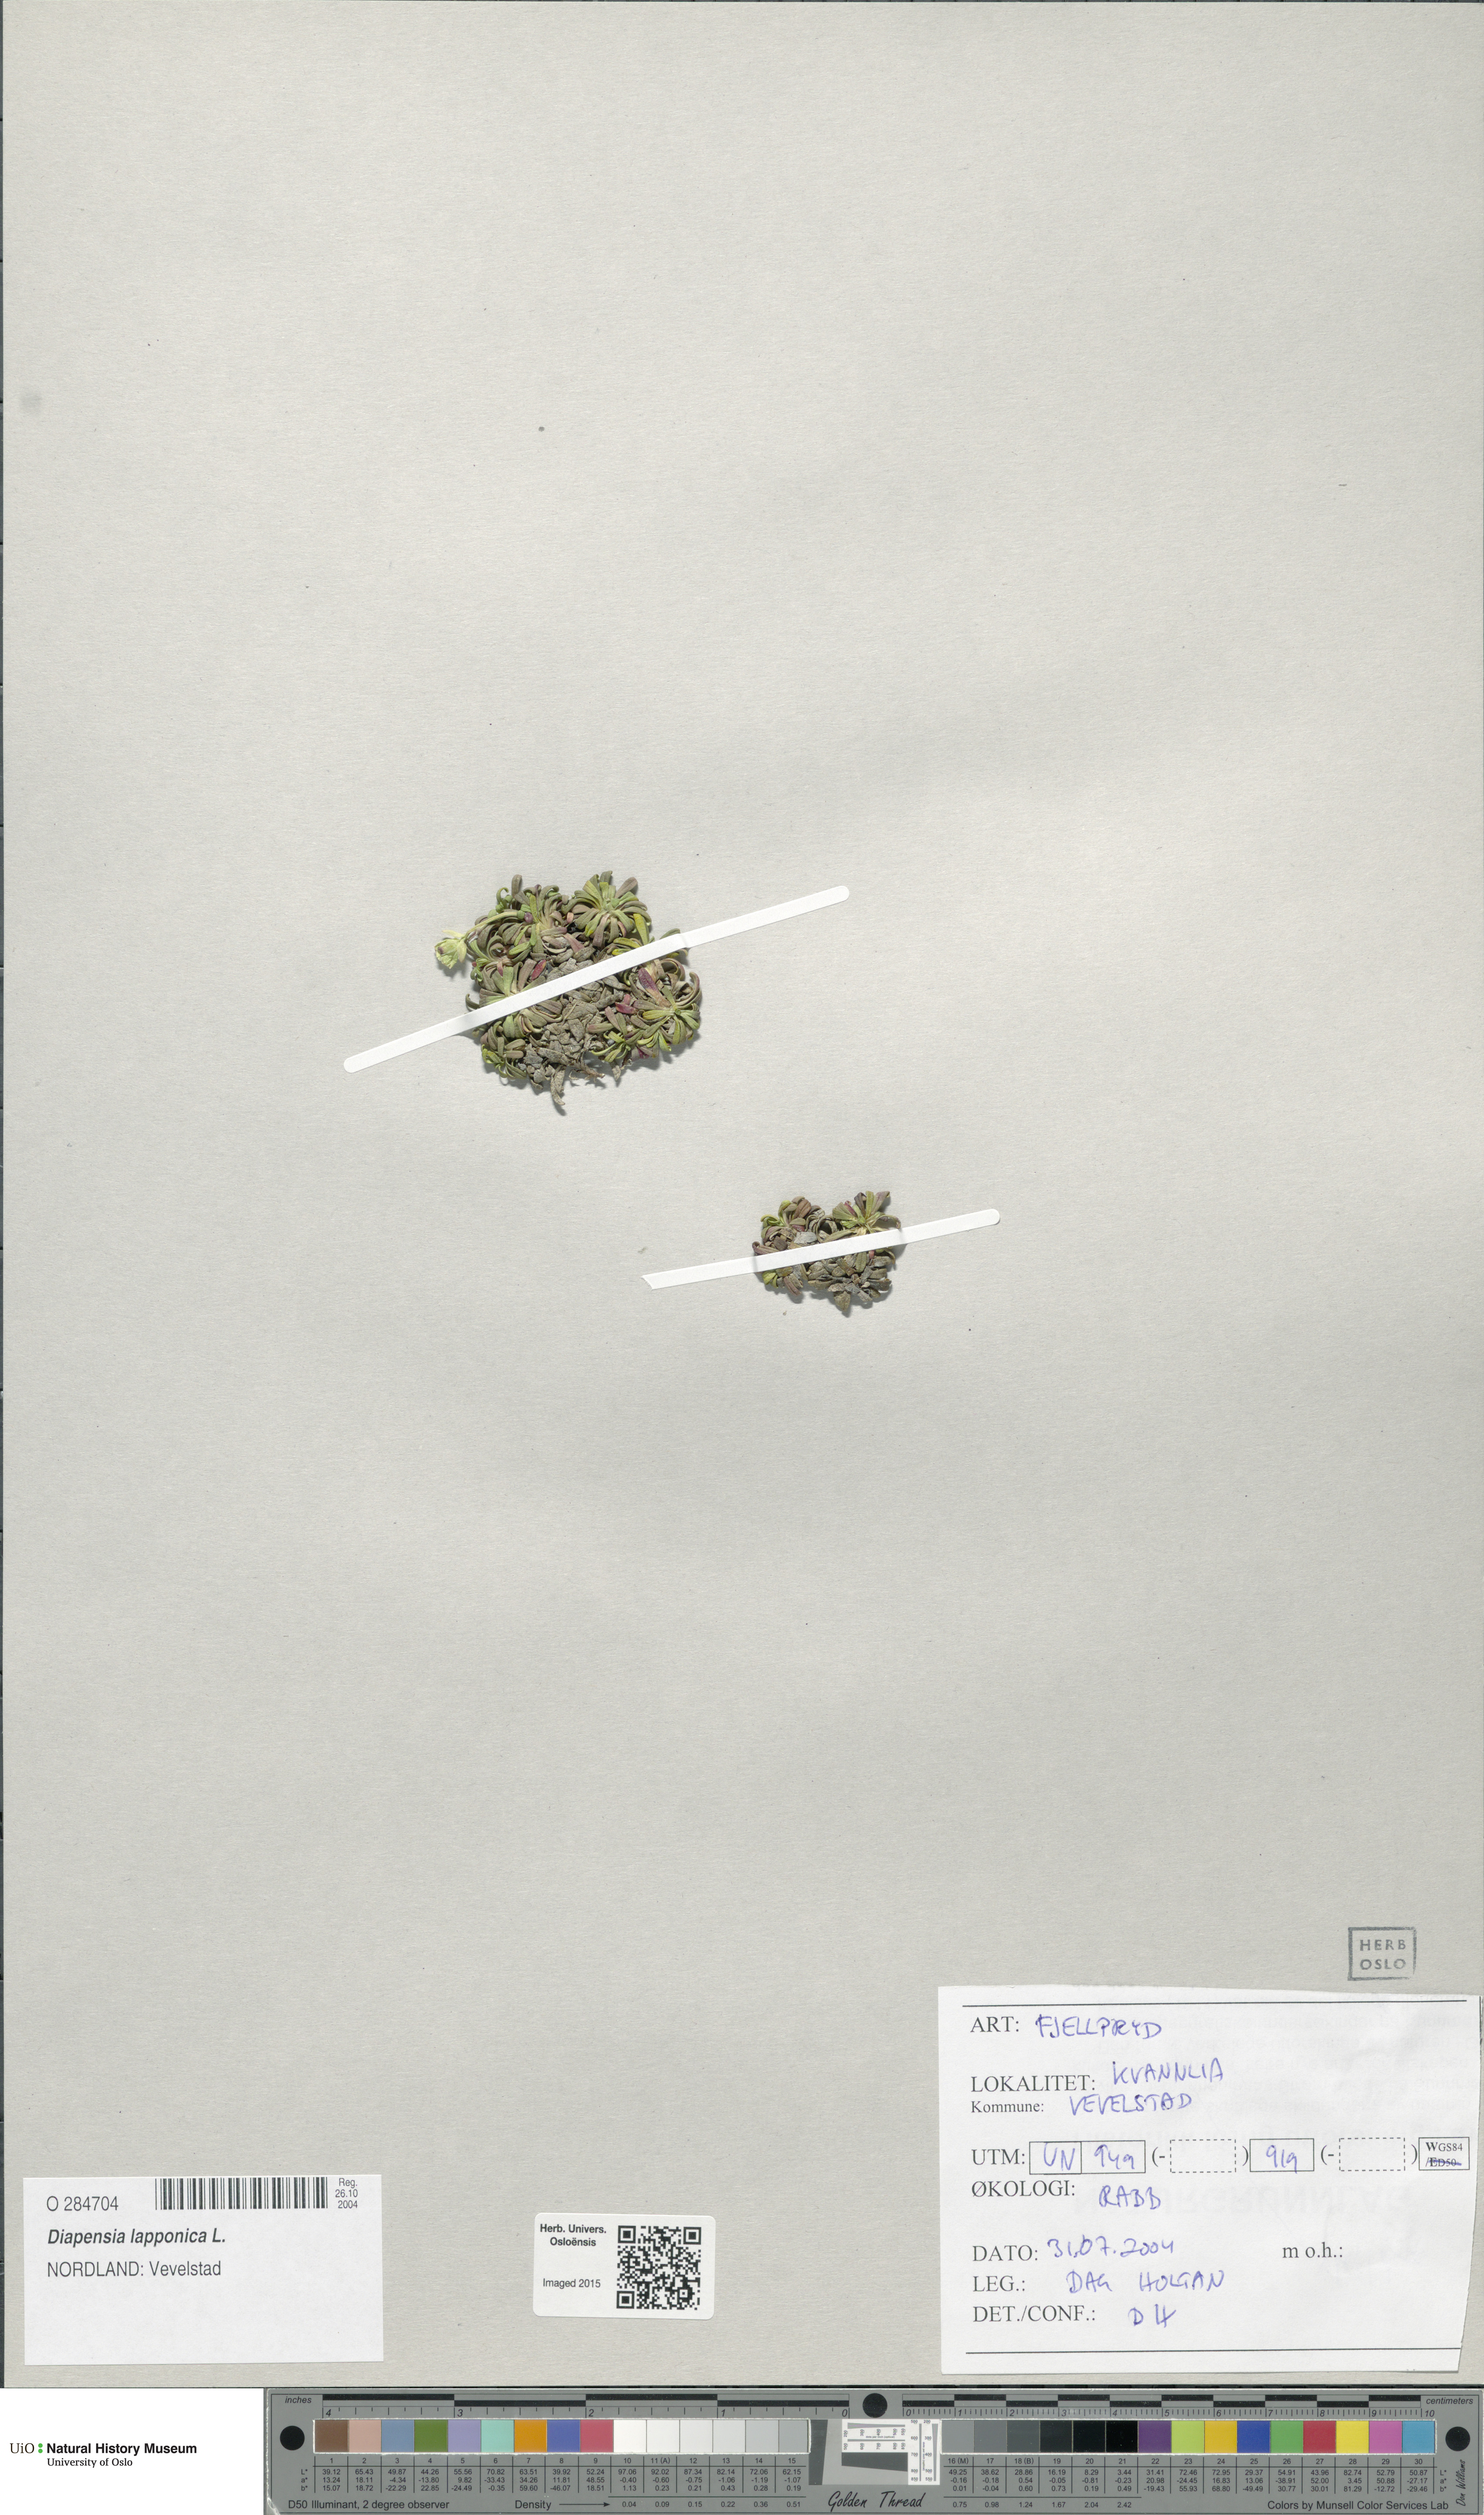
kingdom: Plantae
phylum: Tracheophyta
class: Magnoliopsida
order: Ericales
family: Diapensiaceae
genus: Diapensia
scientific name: Diapensia lapponica
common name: Diapensia
